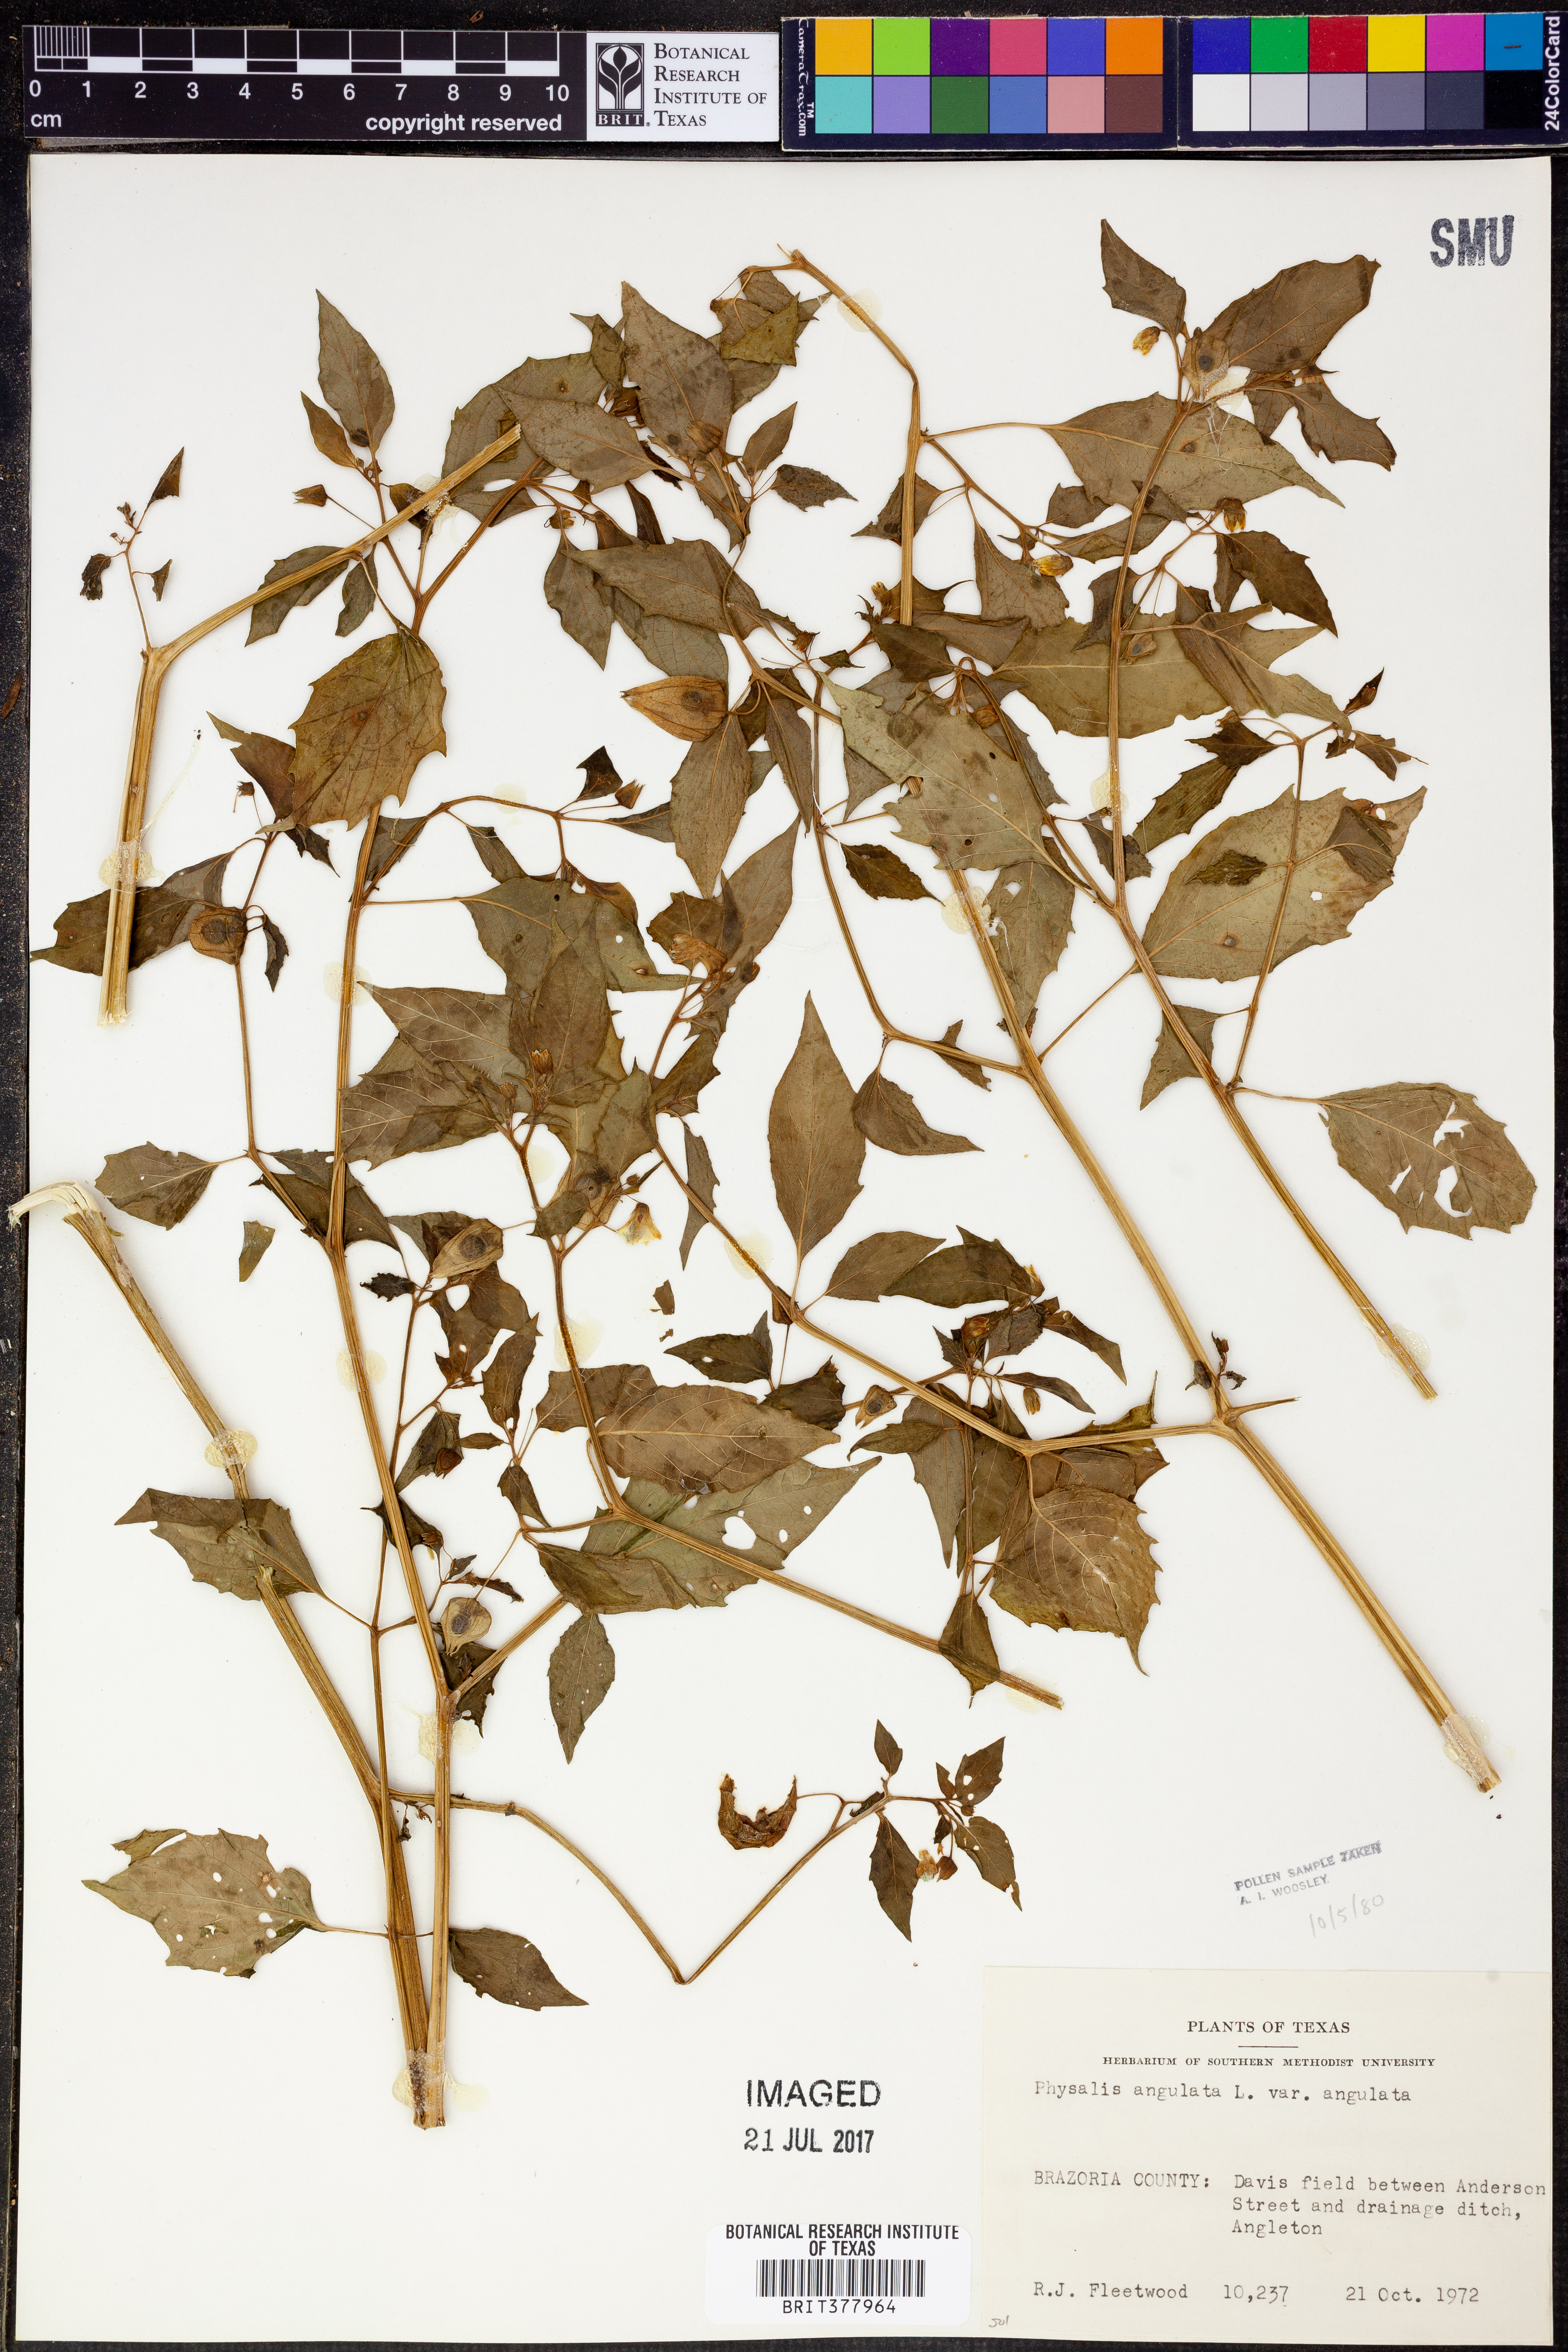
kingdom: Plantae
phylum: Tracheophyta
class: Magnoliopsida
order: Solanales
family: Solanaceae
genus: Physalis
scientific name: Physalis angulata
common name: Angular winter-cherry
